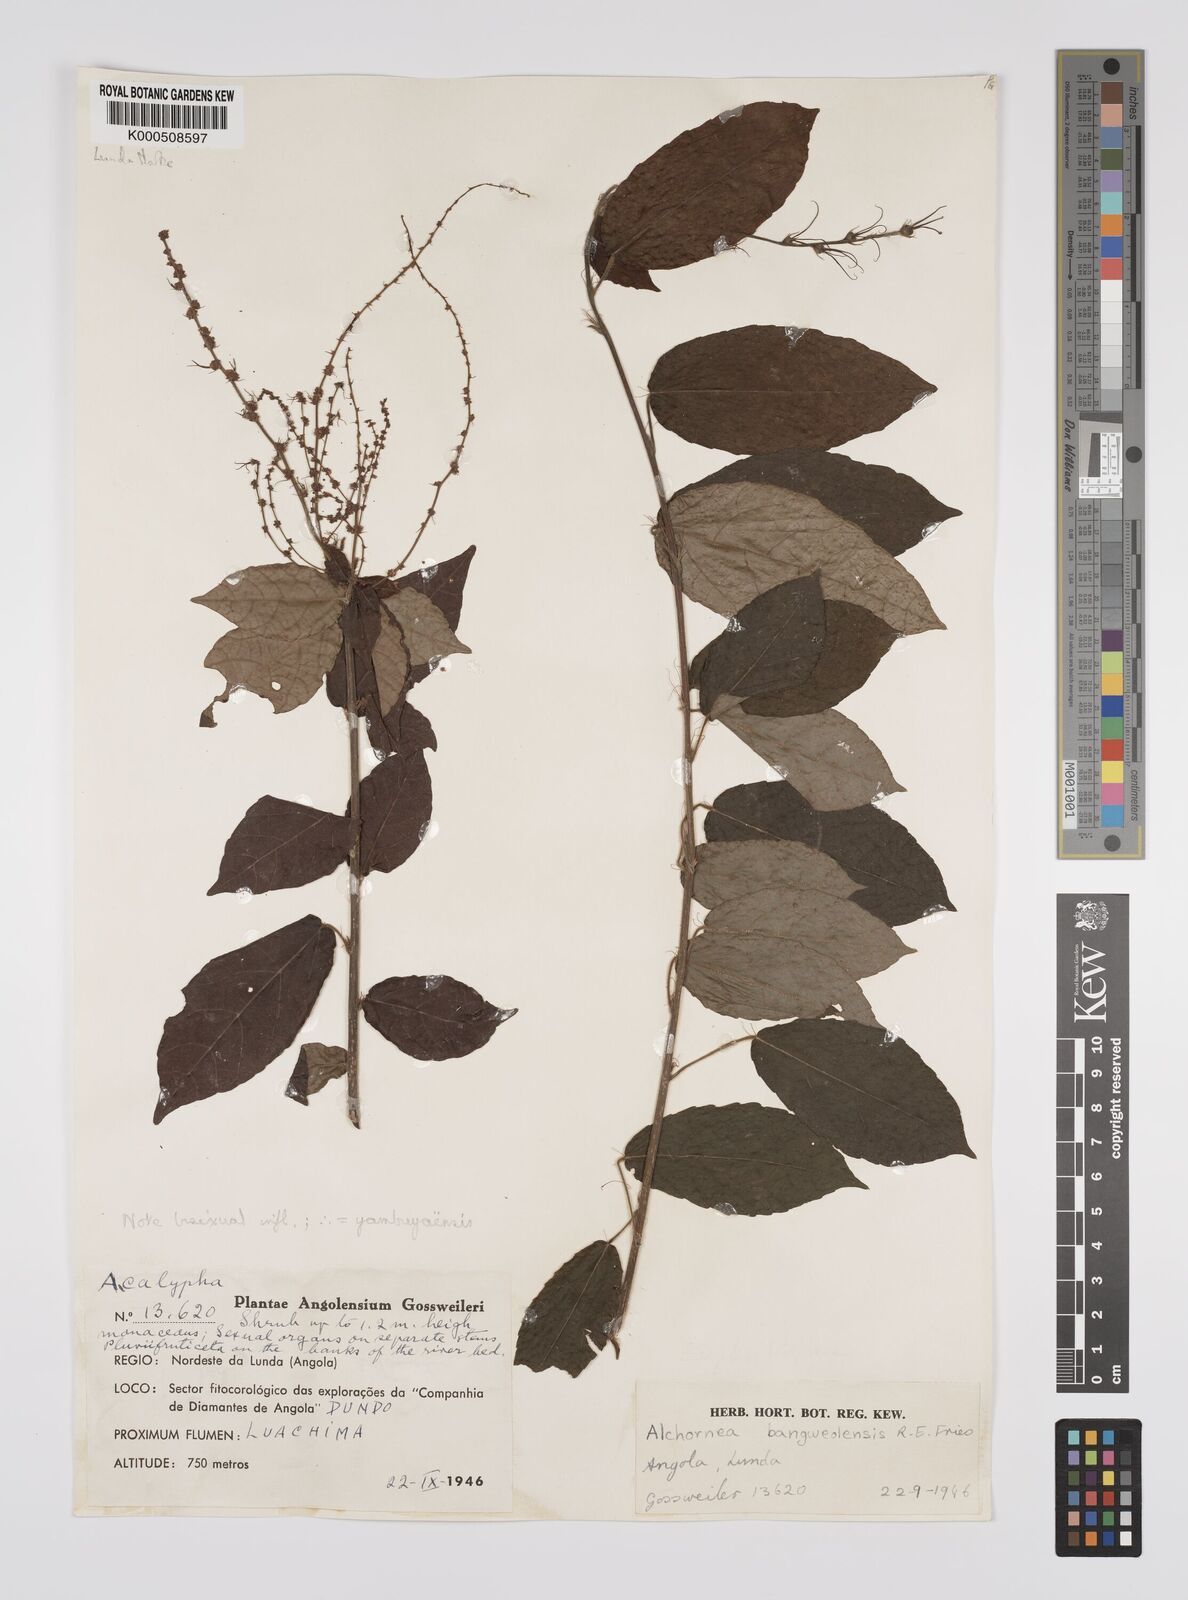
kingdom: Plantae
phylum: Tracheophyta
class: Magnoliopsida
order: Malpighiales
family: Euphorbiaceae
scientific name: Euphorbiaceae
